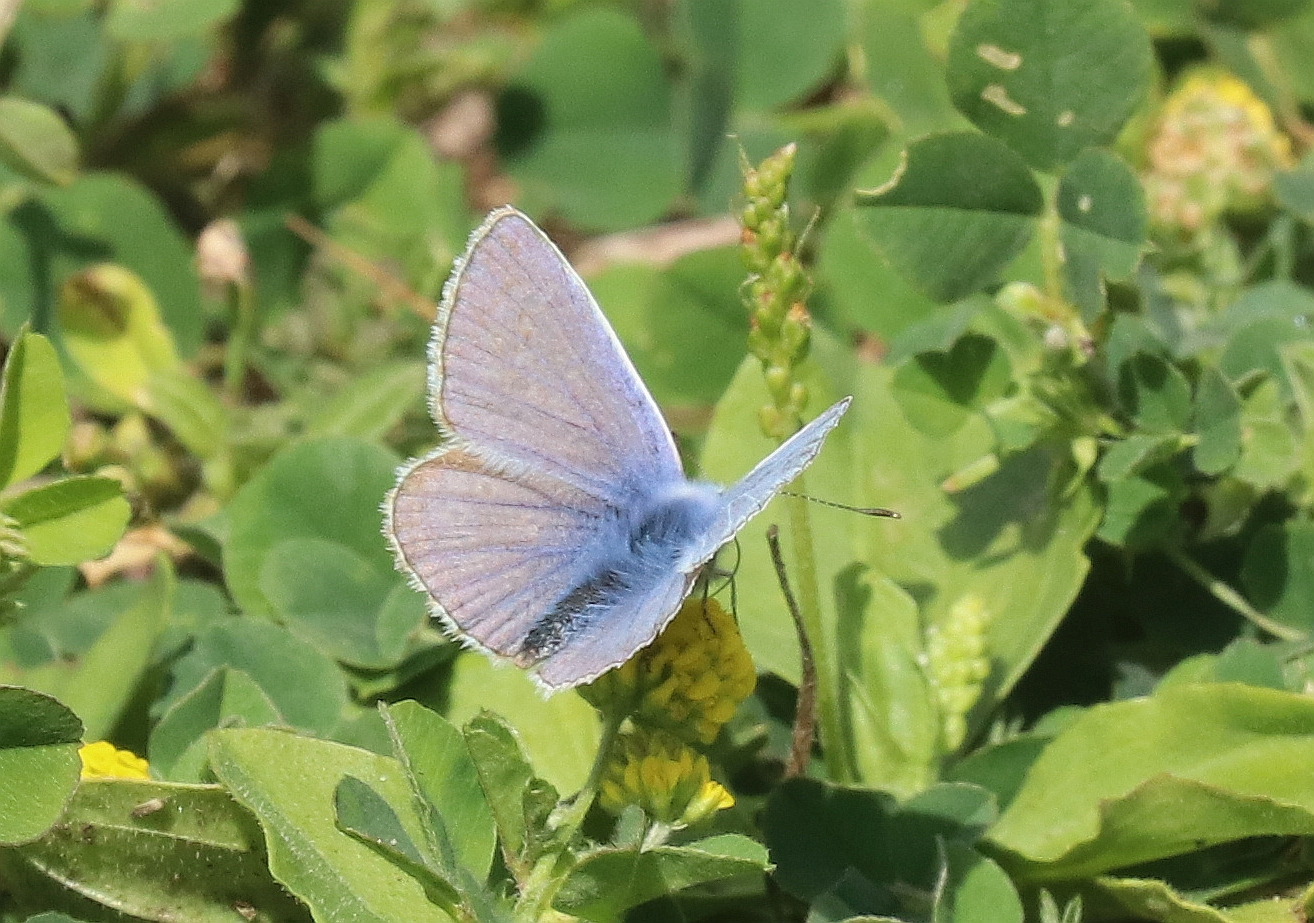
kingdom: Animalia
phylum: Arthropoda
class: Insecta
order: Lepidoptera
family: Lycaenidae
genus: Polyommatus
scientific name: Polyommatus icarus
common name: Almindelig blåfugl
